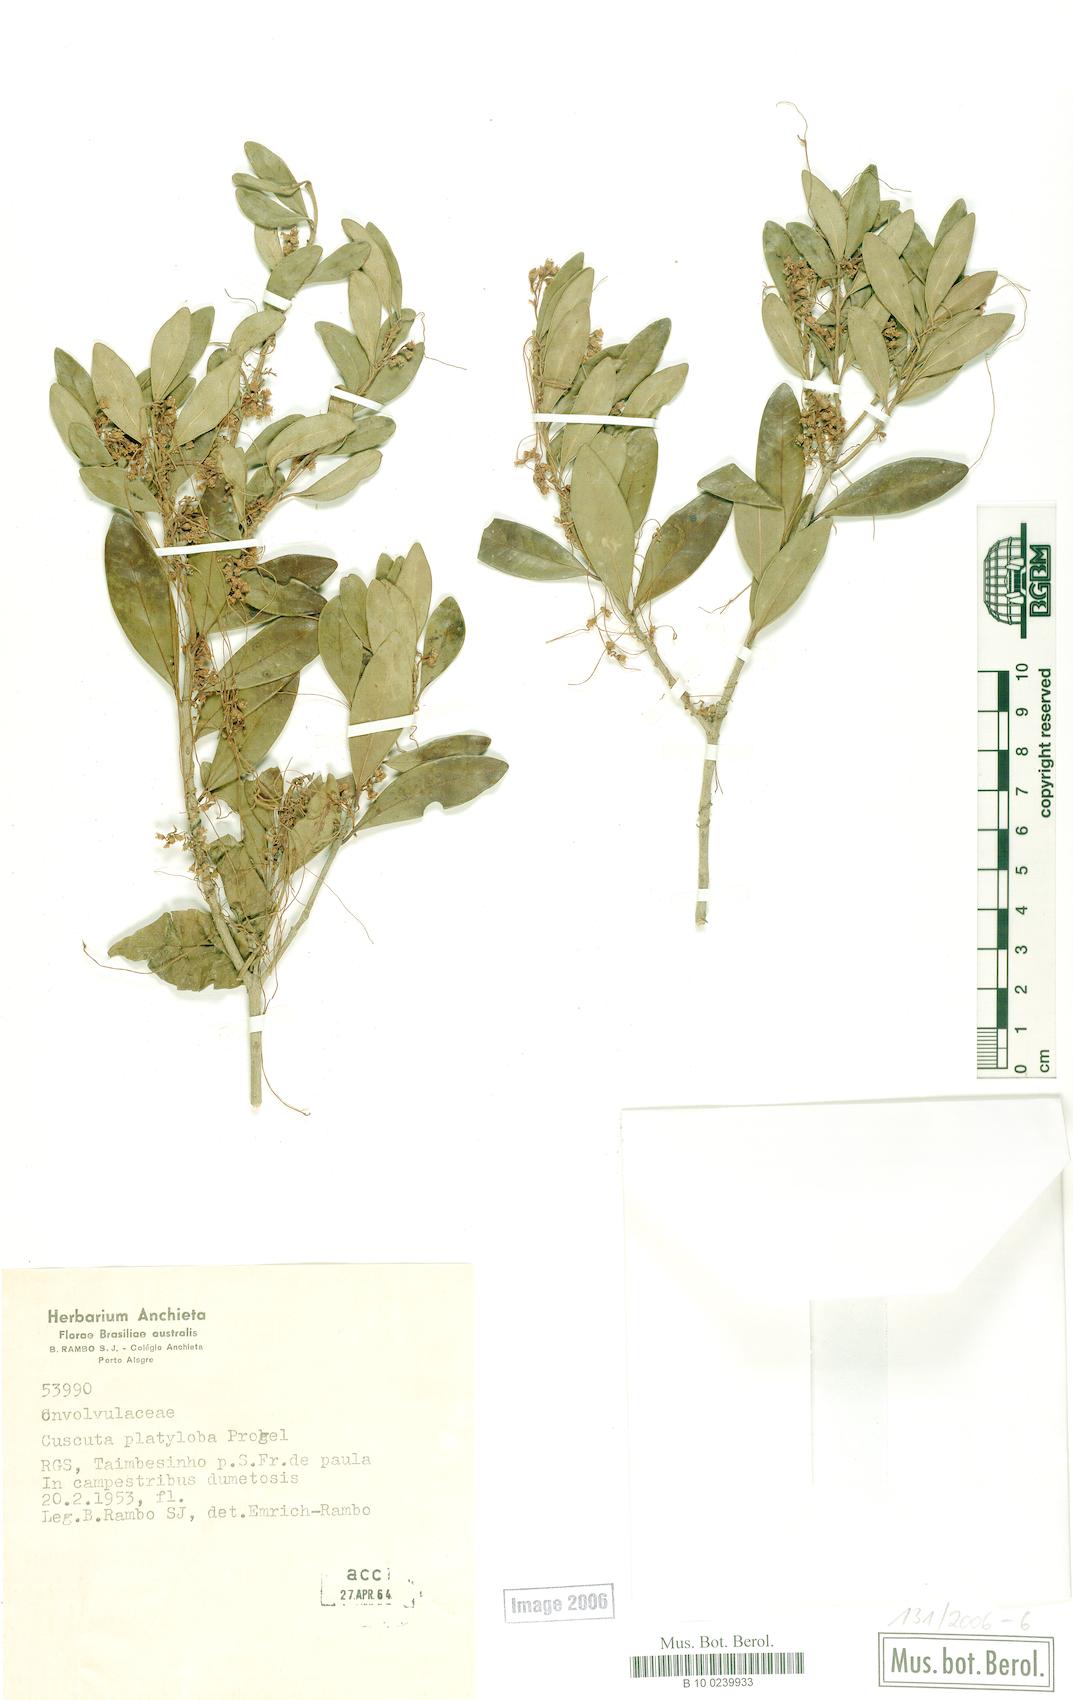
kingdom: Plantae
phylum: Tracheophyta
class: Magnoliopsida
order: Solanales
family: Convolvulaceae
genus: Cuscuta
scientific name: Cuscuta platyloba
